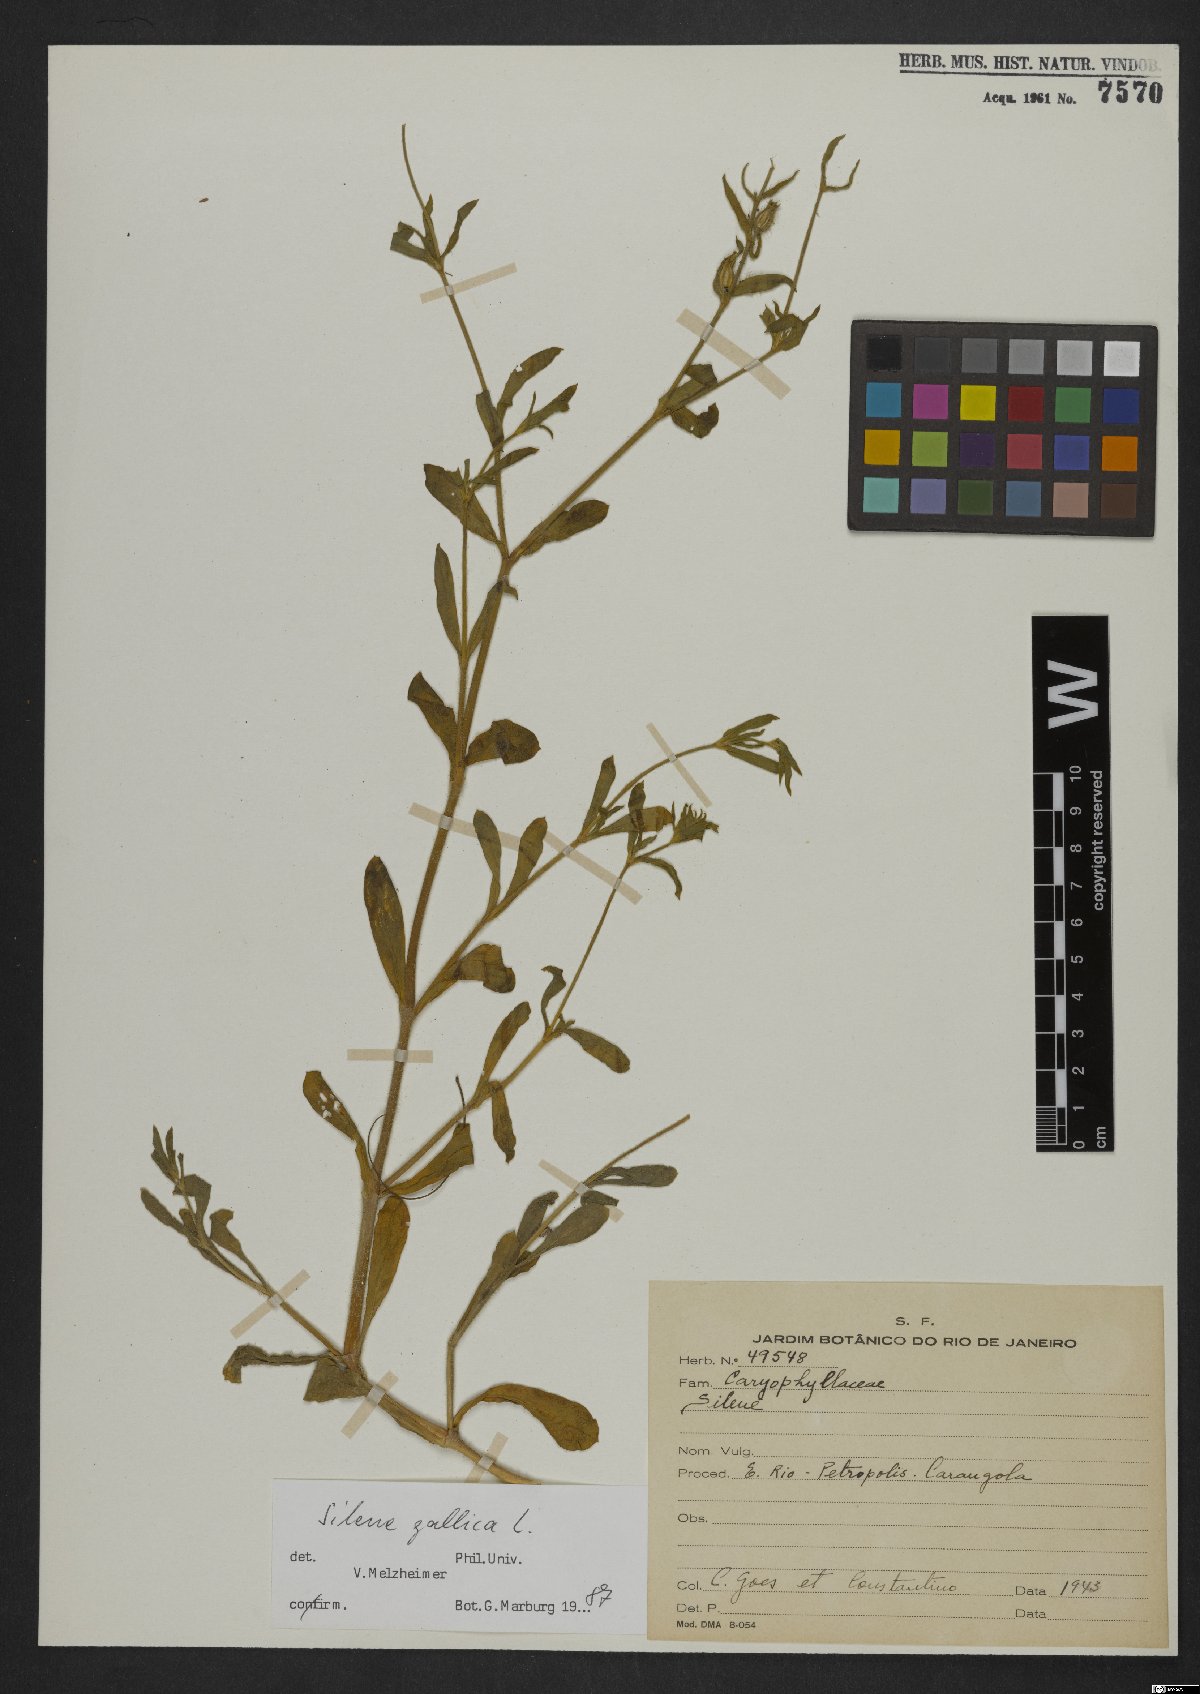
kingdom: Plantae
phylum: Tracheophyta
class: Magnoliopsida
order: Caryophyllales
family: Caryophyllaceae
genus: Silene
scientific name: Silene gallica
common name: Small-flowered catchfly
